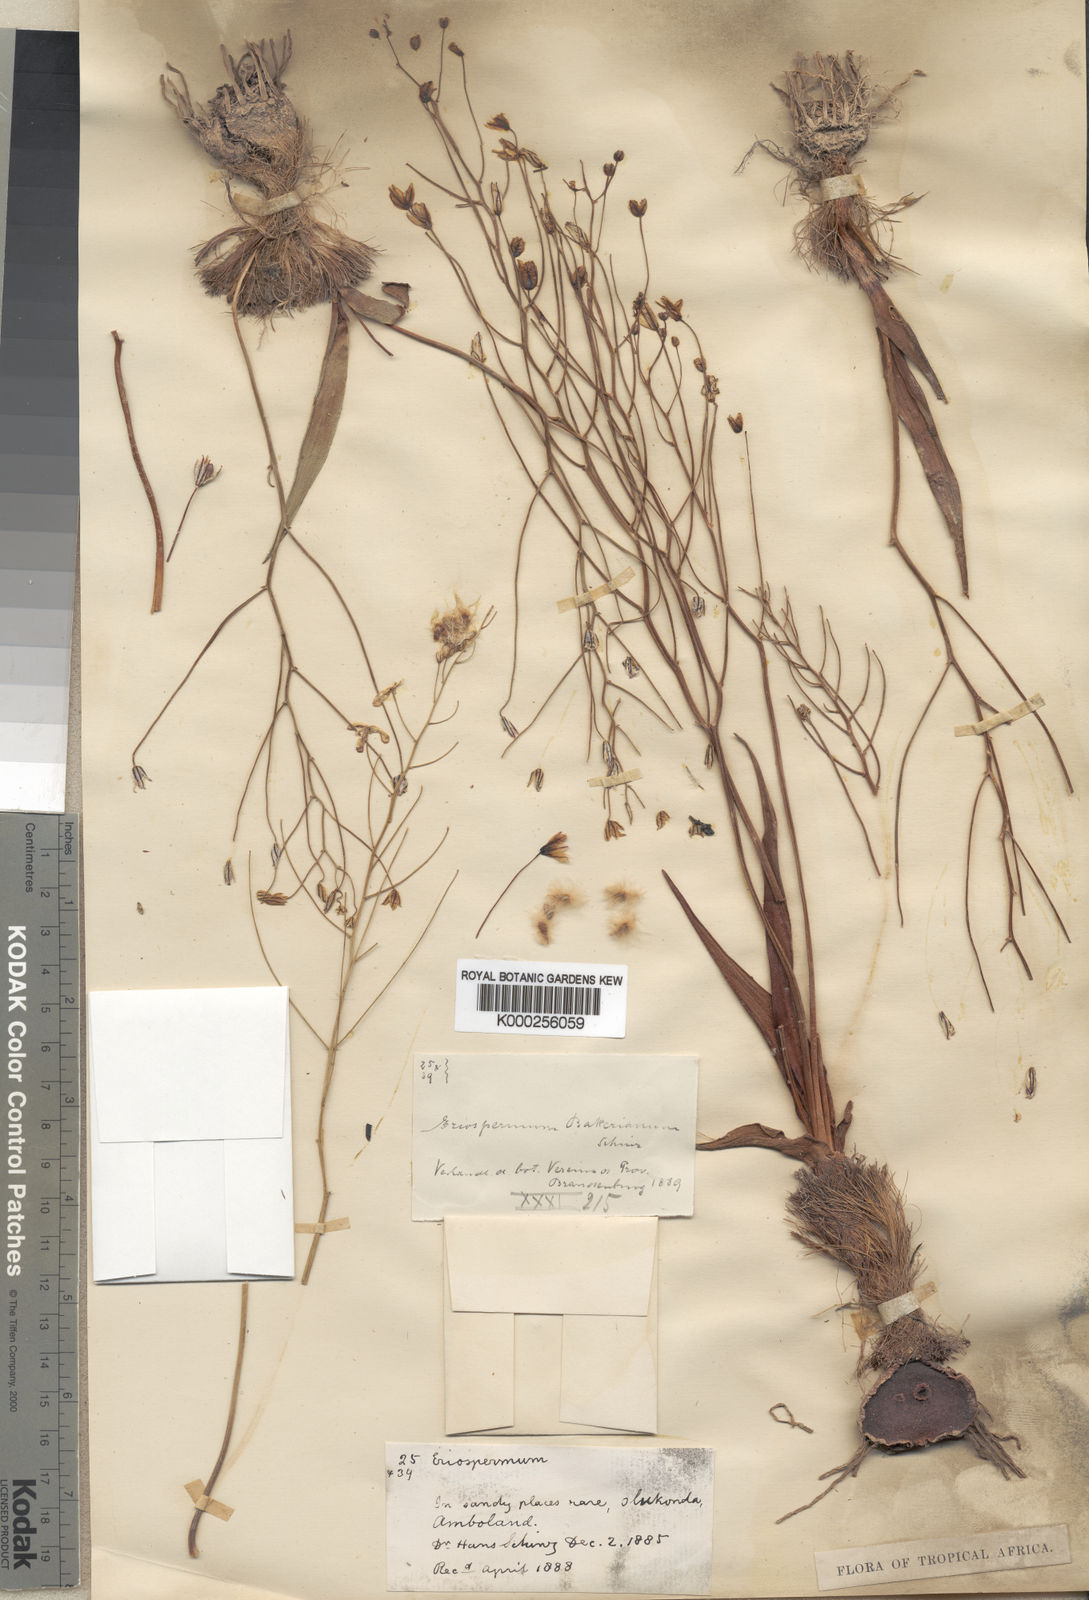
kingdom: Plantae
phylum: Tracheophyta
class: Liliopsida
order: Asparagales
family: Asparagaceae
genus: Eriospermum
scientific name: Eriospermum bakerianum
